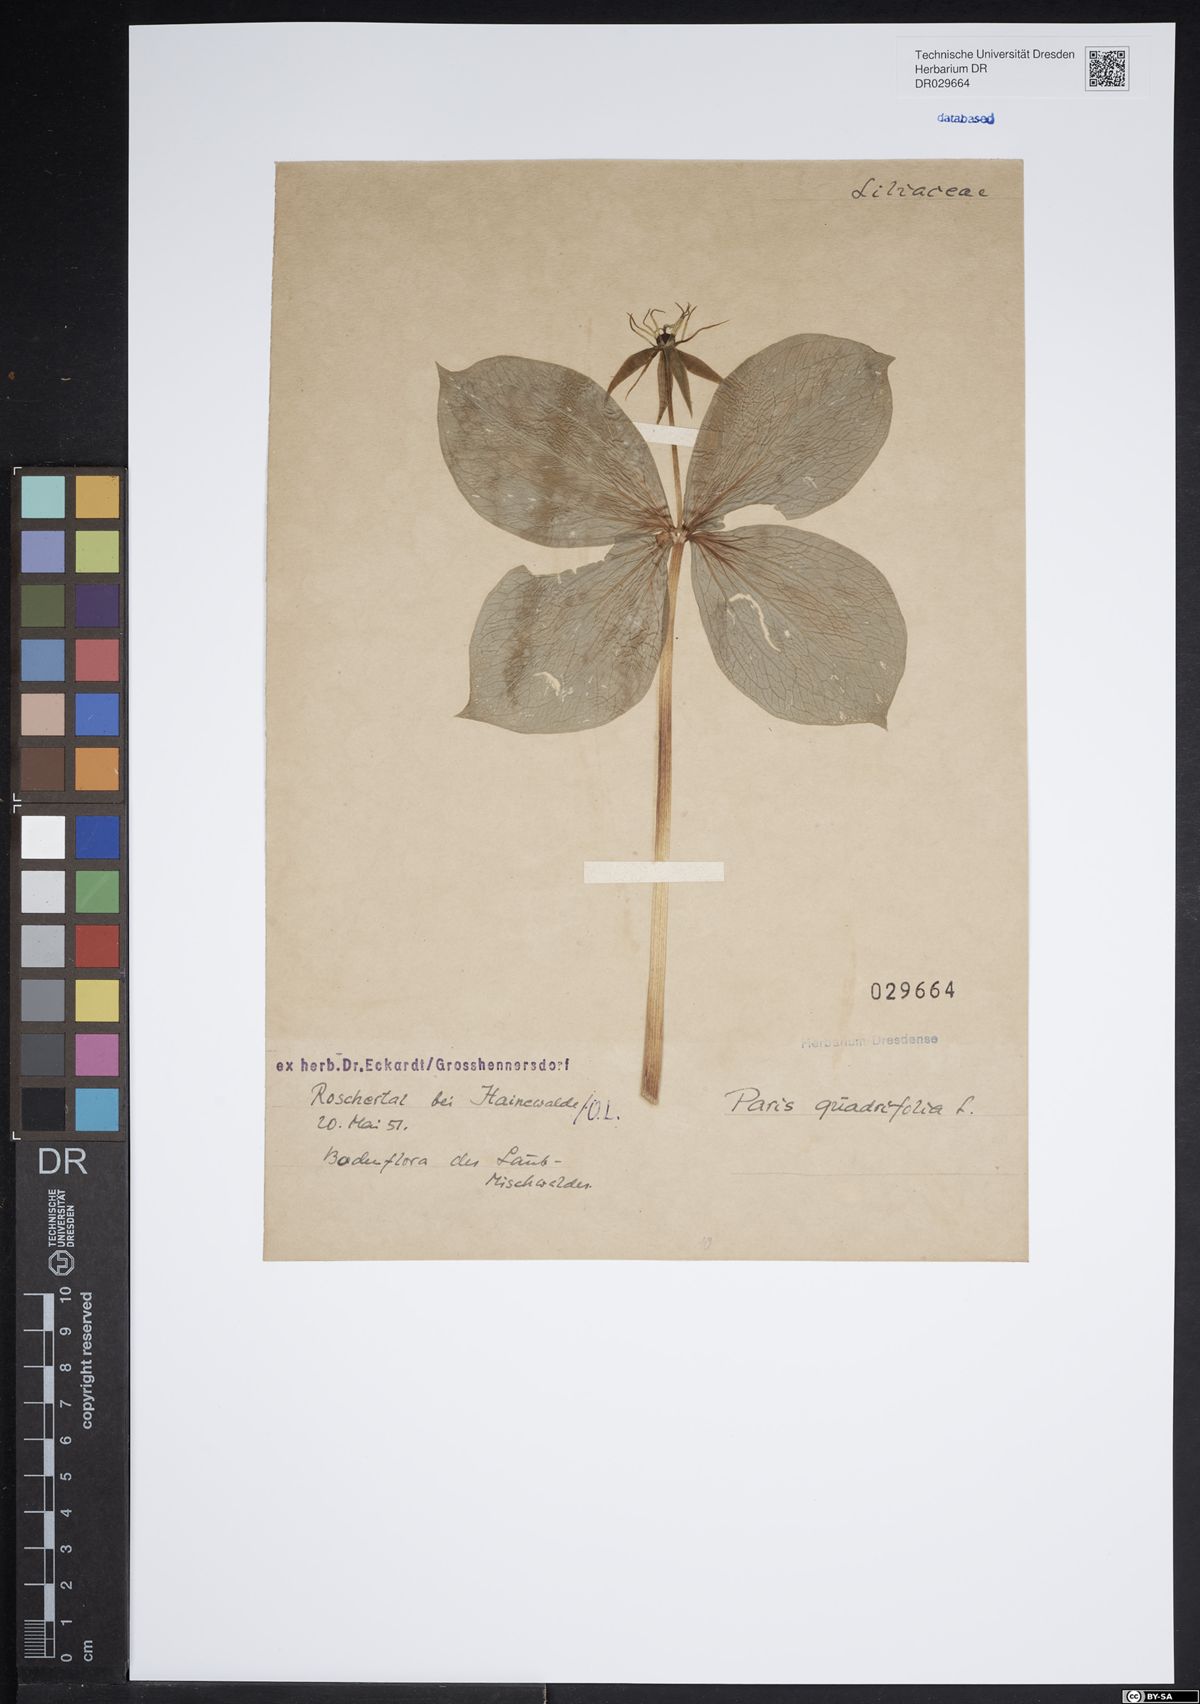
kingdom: Plantae
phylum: Tracheophyta
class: Liliopsida
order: Liliales
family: Melanthiaceae
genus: Paris
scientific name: Paris quadrifolia
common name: Herb-paris
